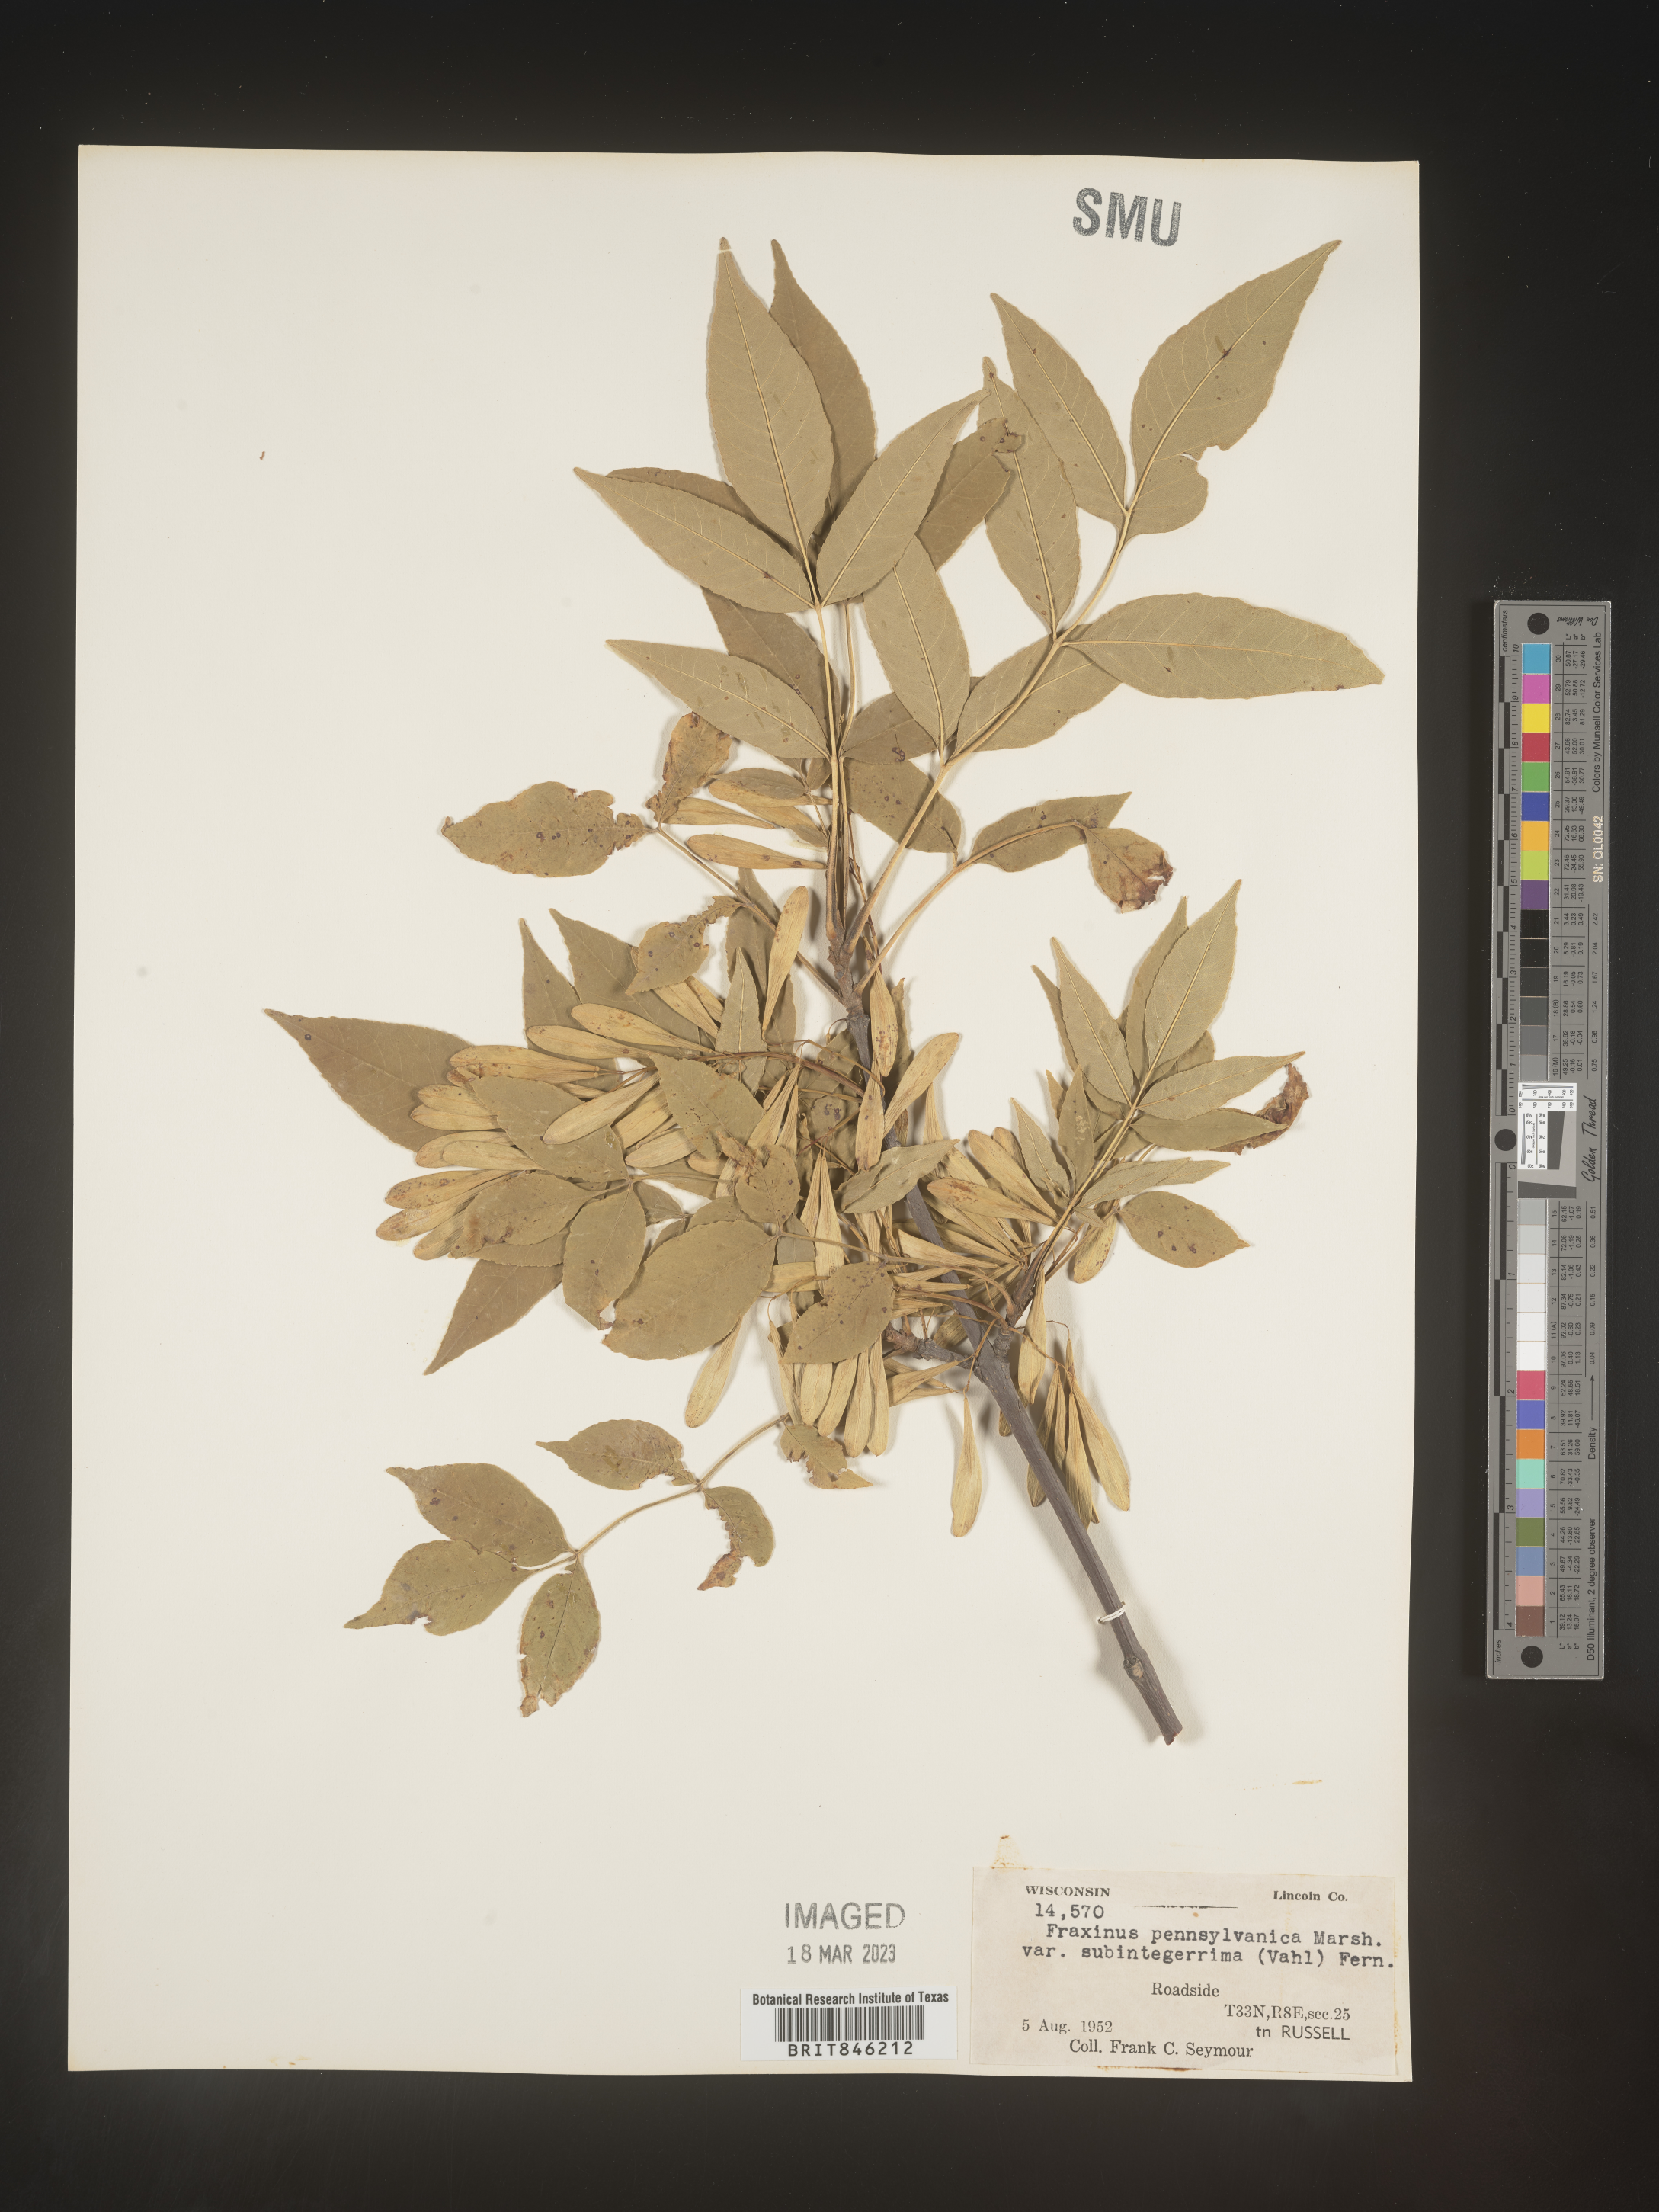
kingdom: Plantae
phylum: Tracheophyta
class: Magnoliopsida
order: Lamiales
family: Oleaceae
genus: Fraxinus
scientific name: Fraxinus pennsylvanica
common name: Green ash
